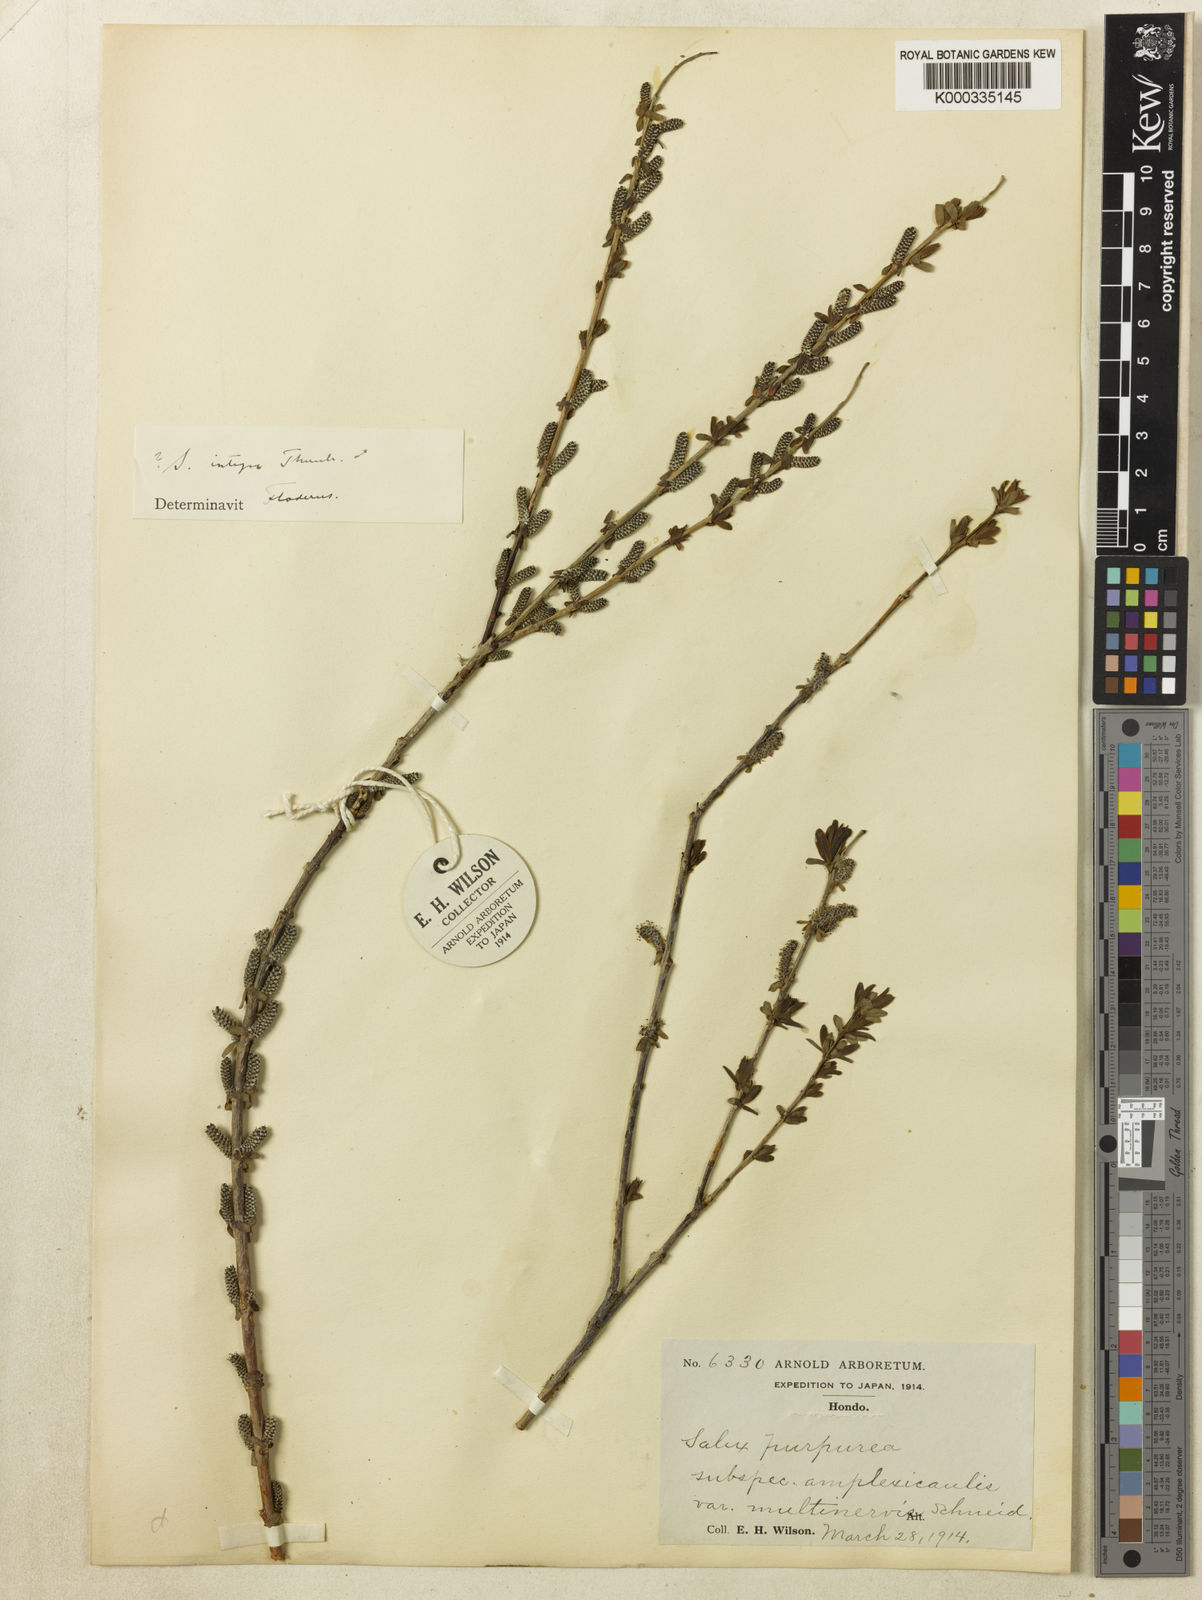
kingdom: Plantae
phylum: Tracheophyta
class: Magnoliopsida
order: Malpighiales
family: Salicaceae
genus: Salix
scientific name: Salix purpurea
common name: Purple willow
